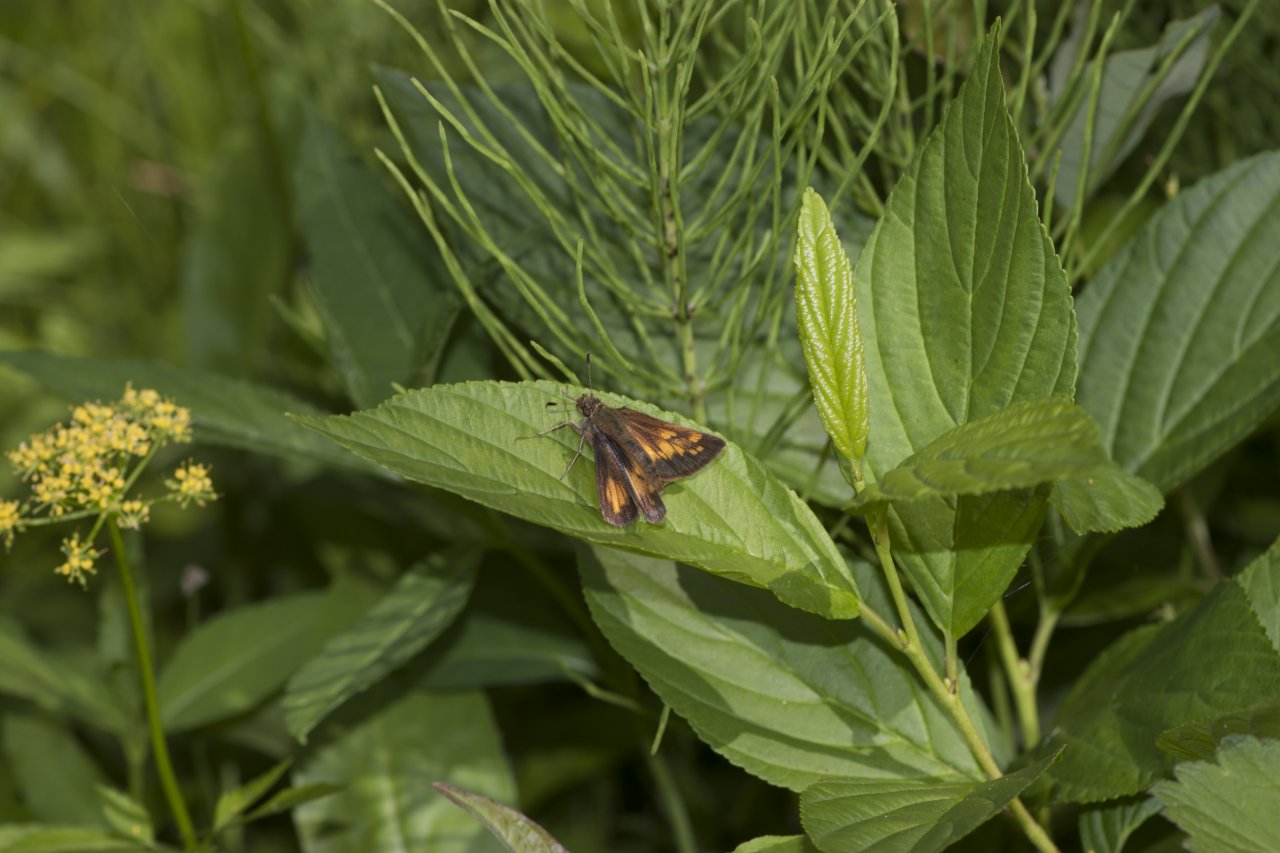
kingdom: Animalia
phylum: Arthropoda
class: Insecta
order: Lepidoptera
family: Hesperiidae
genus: Lon
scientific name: Lon hobomok
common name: Hobomok Skipper
